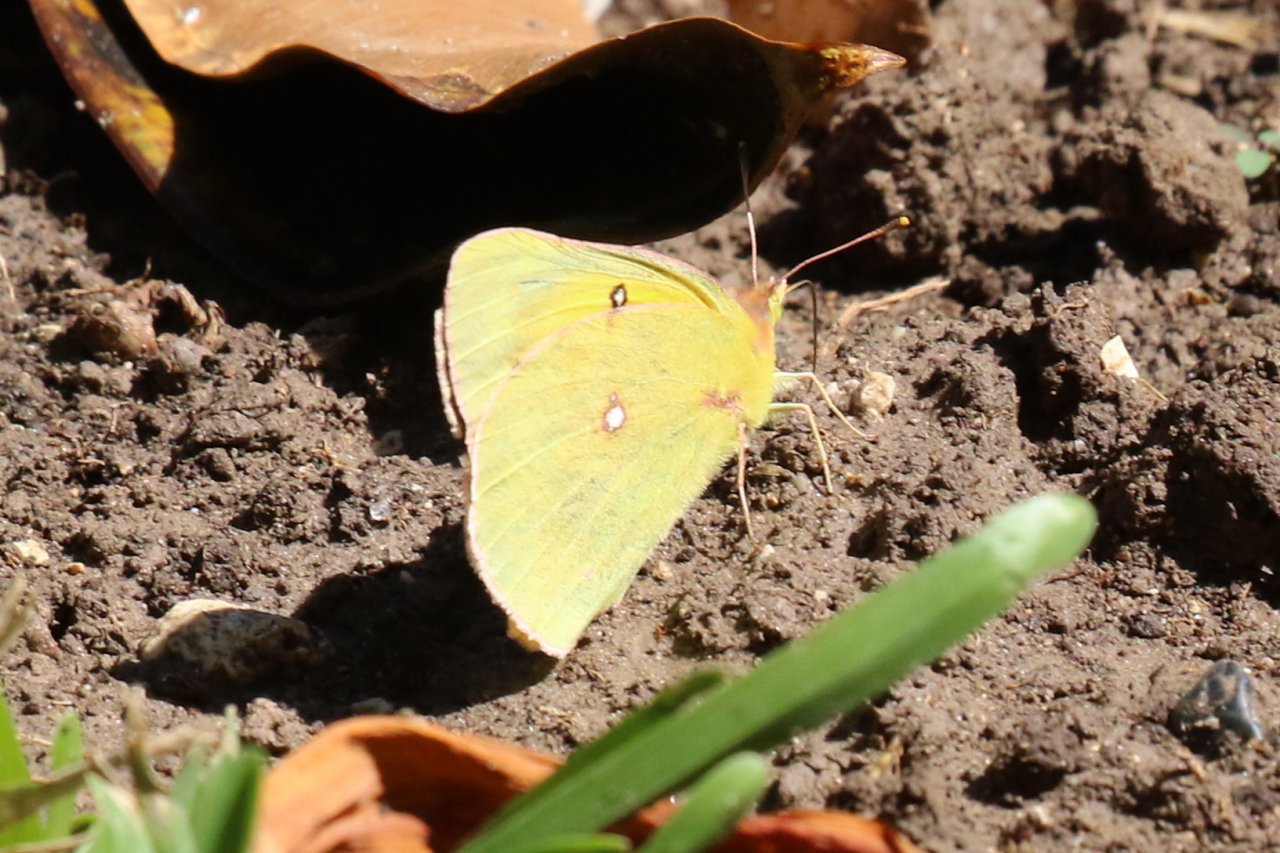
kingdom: Animalia
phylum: Arthropoda
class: Insecta
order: Lepidoptera
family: Pieridae
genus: Colias
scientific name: Colias eurytheme
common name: Orange Sulphur
